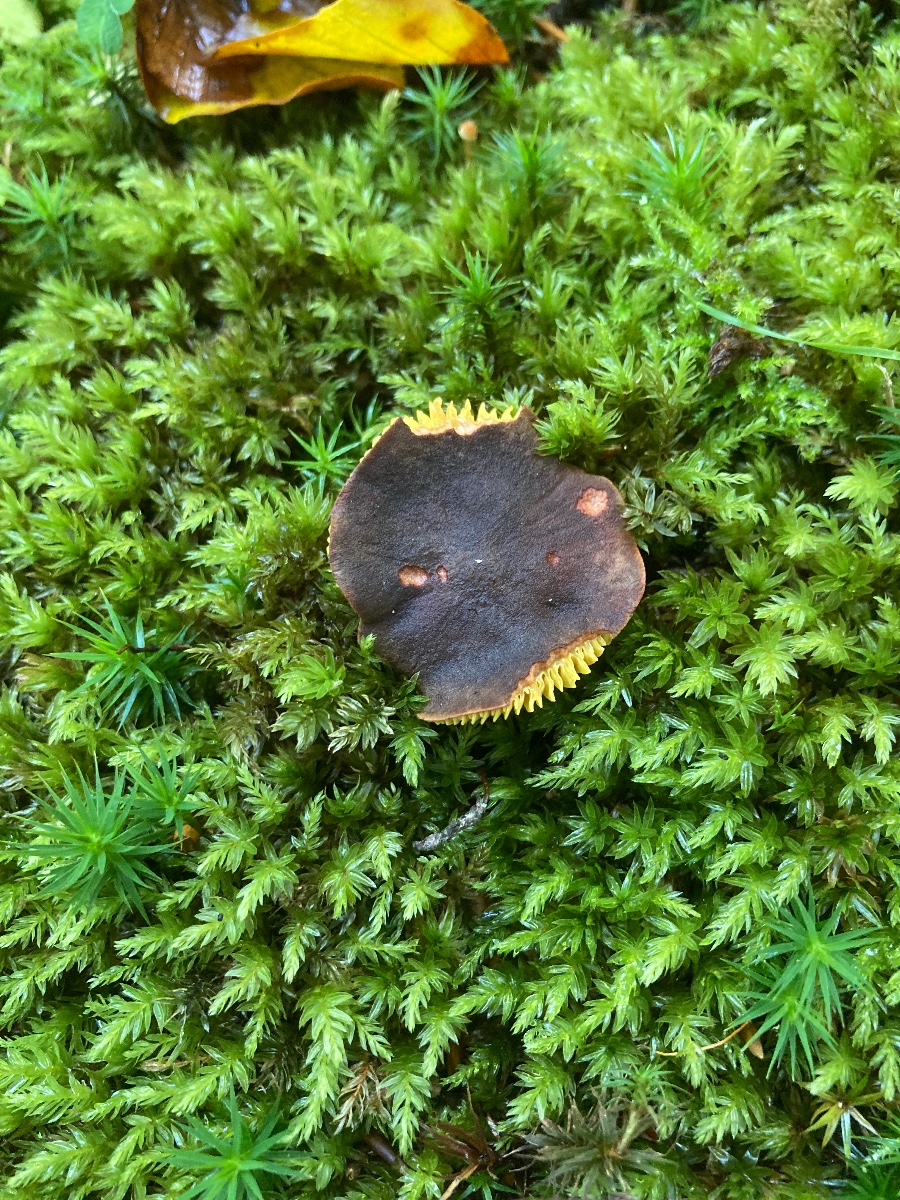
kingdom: Fungi
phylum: Basidiomycota
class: Agaricomycetes
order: Boletales
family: Boletaceae
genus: Phylloporus
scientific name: Phylloporus pelletieri
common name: lamelrørhat
